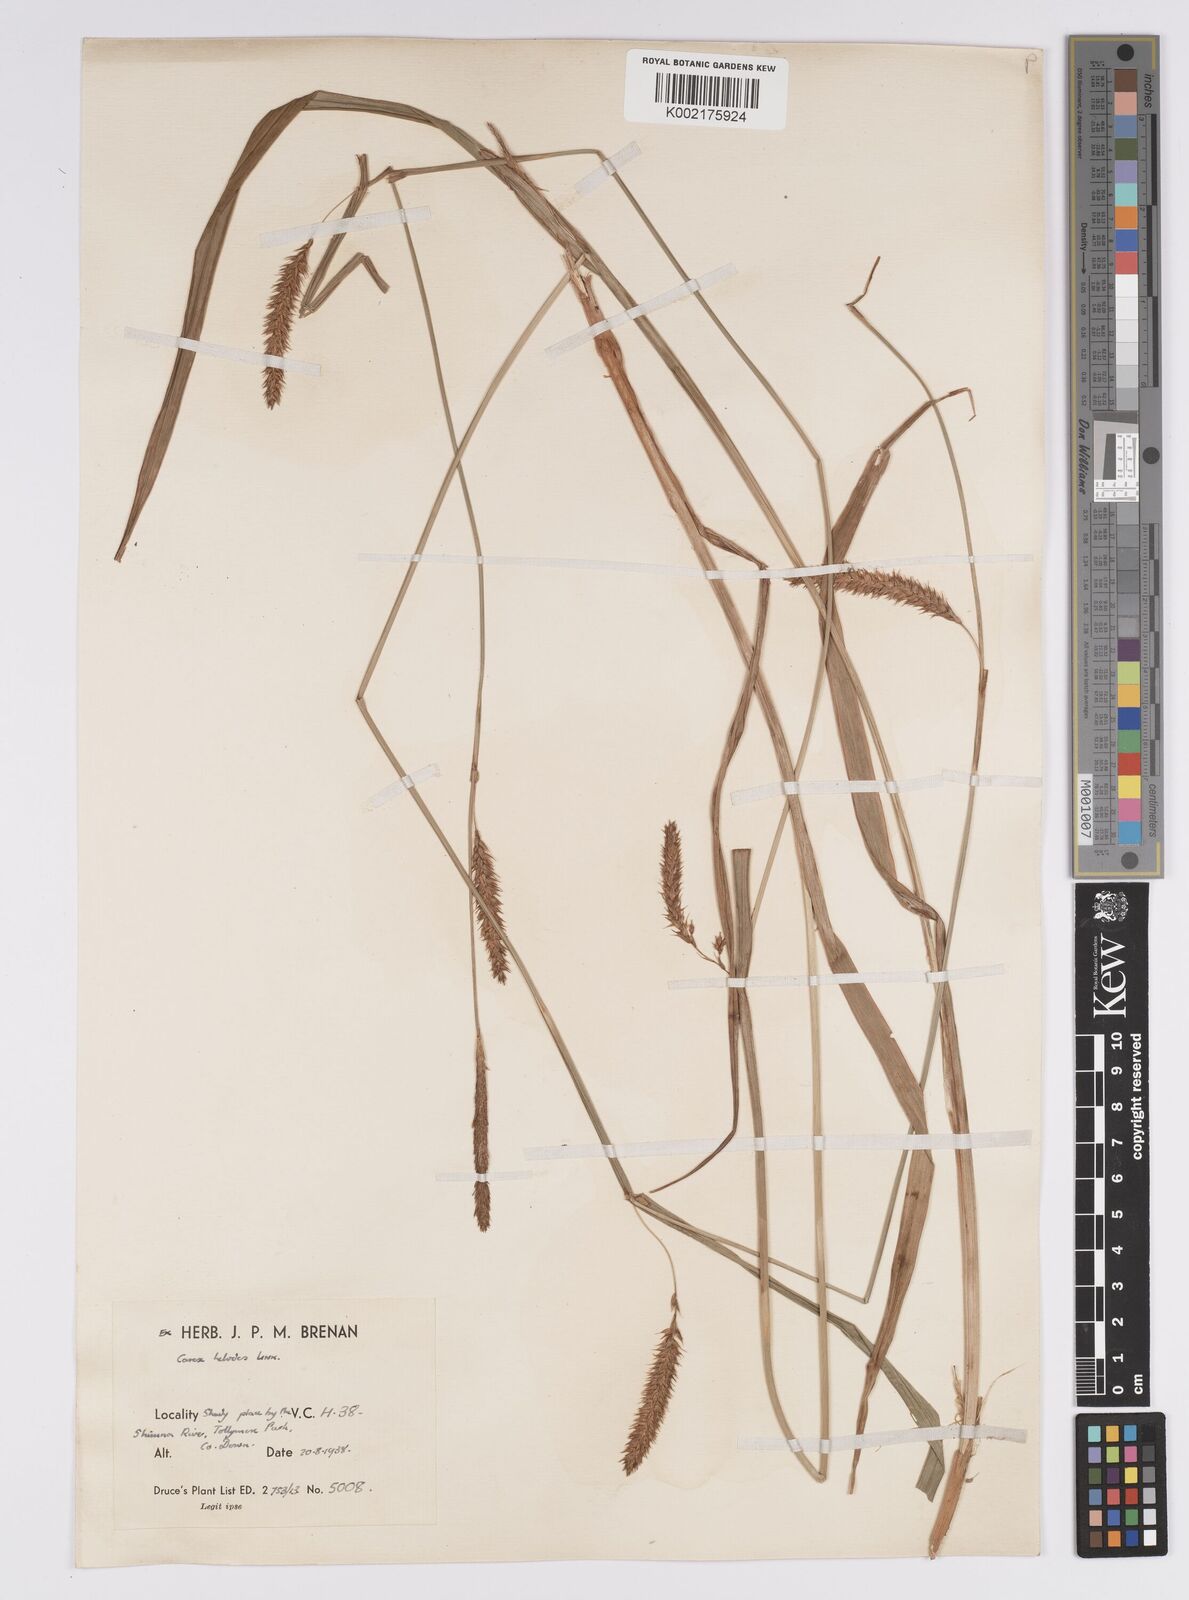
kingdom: Plantae
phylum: Tracheophyta
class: Liliopsida
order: Poales
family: Cyperaceae
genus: Carex
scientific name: Carex laevigata
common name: Smooth-stalked sedge
